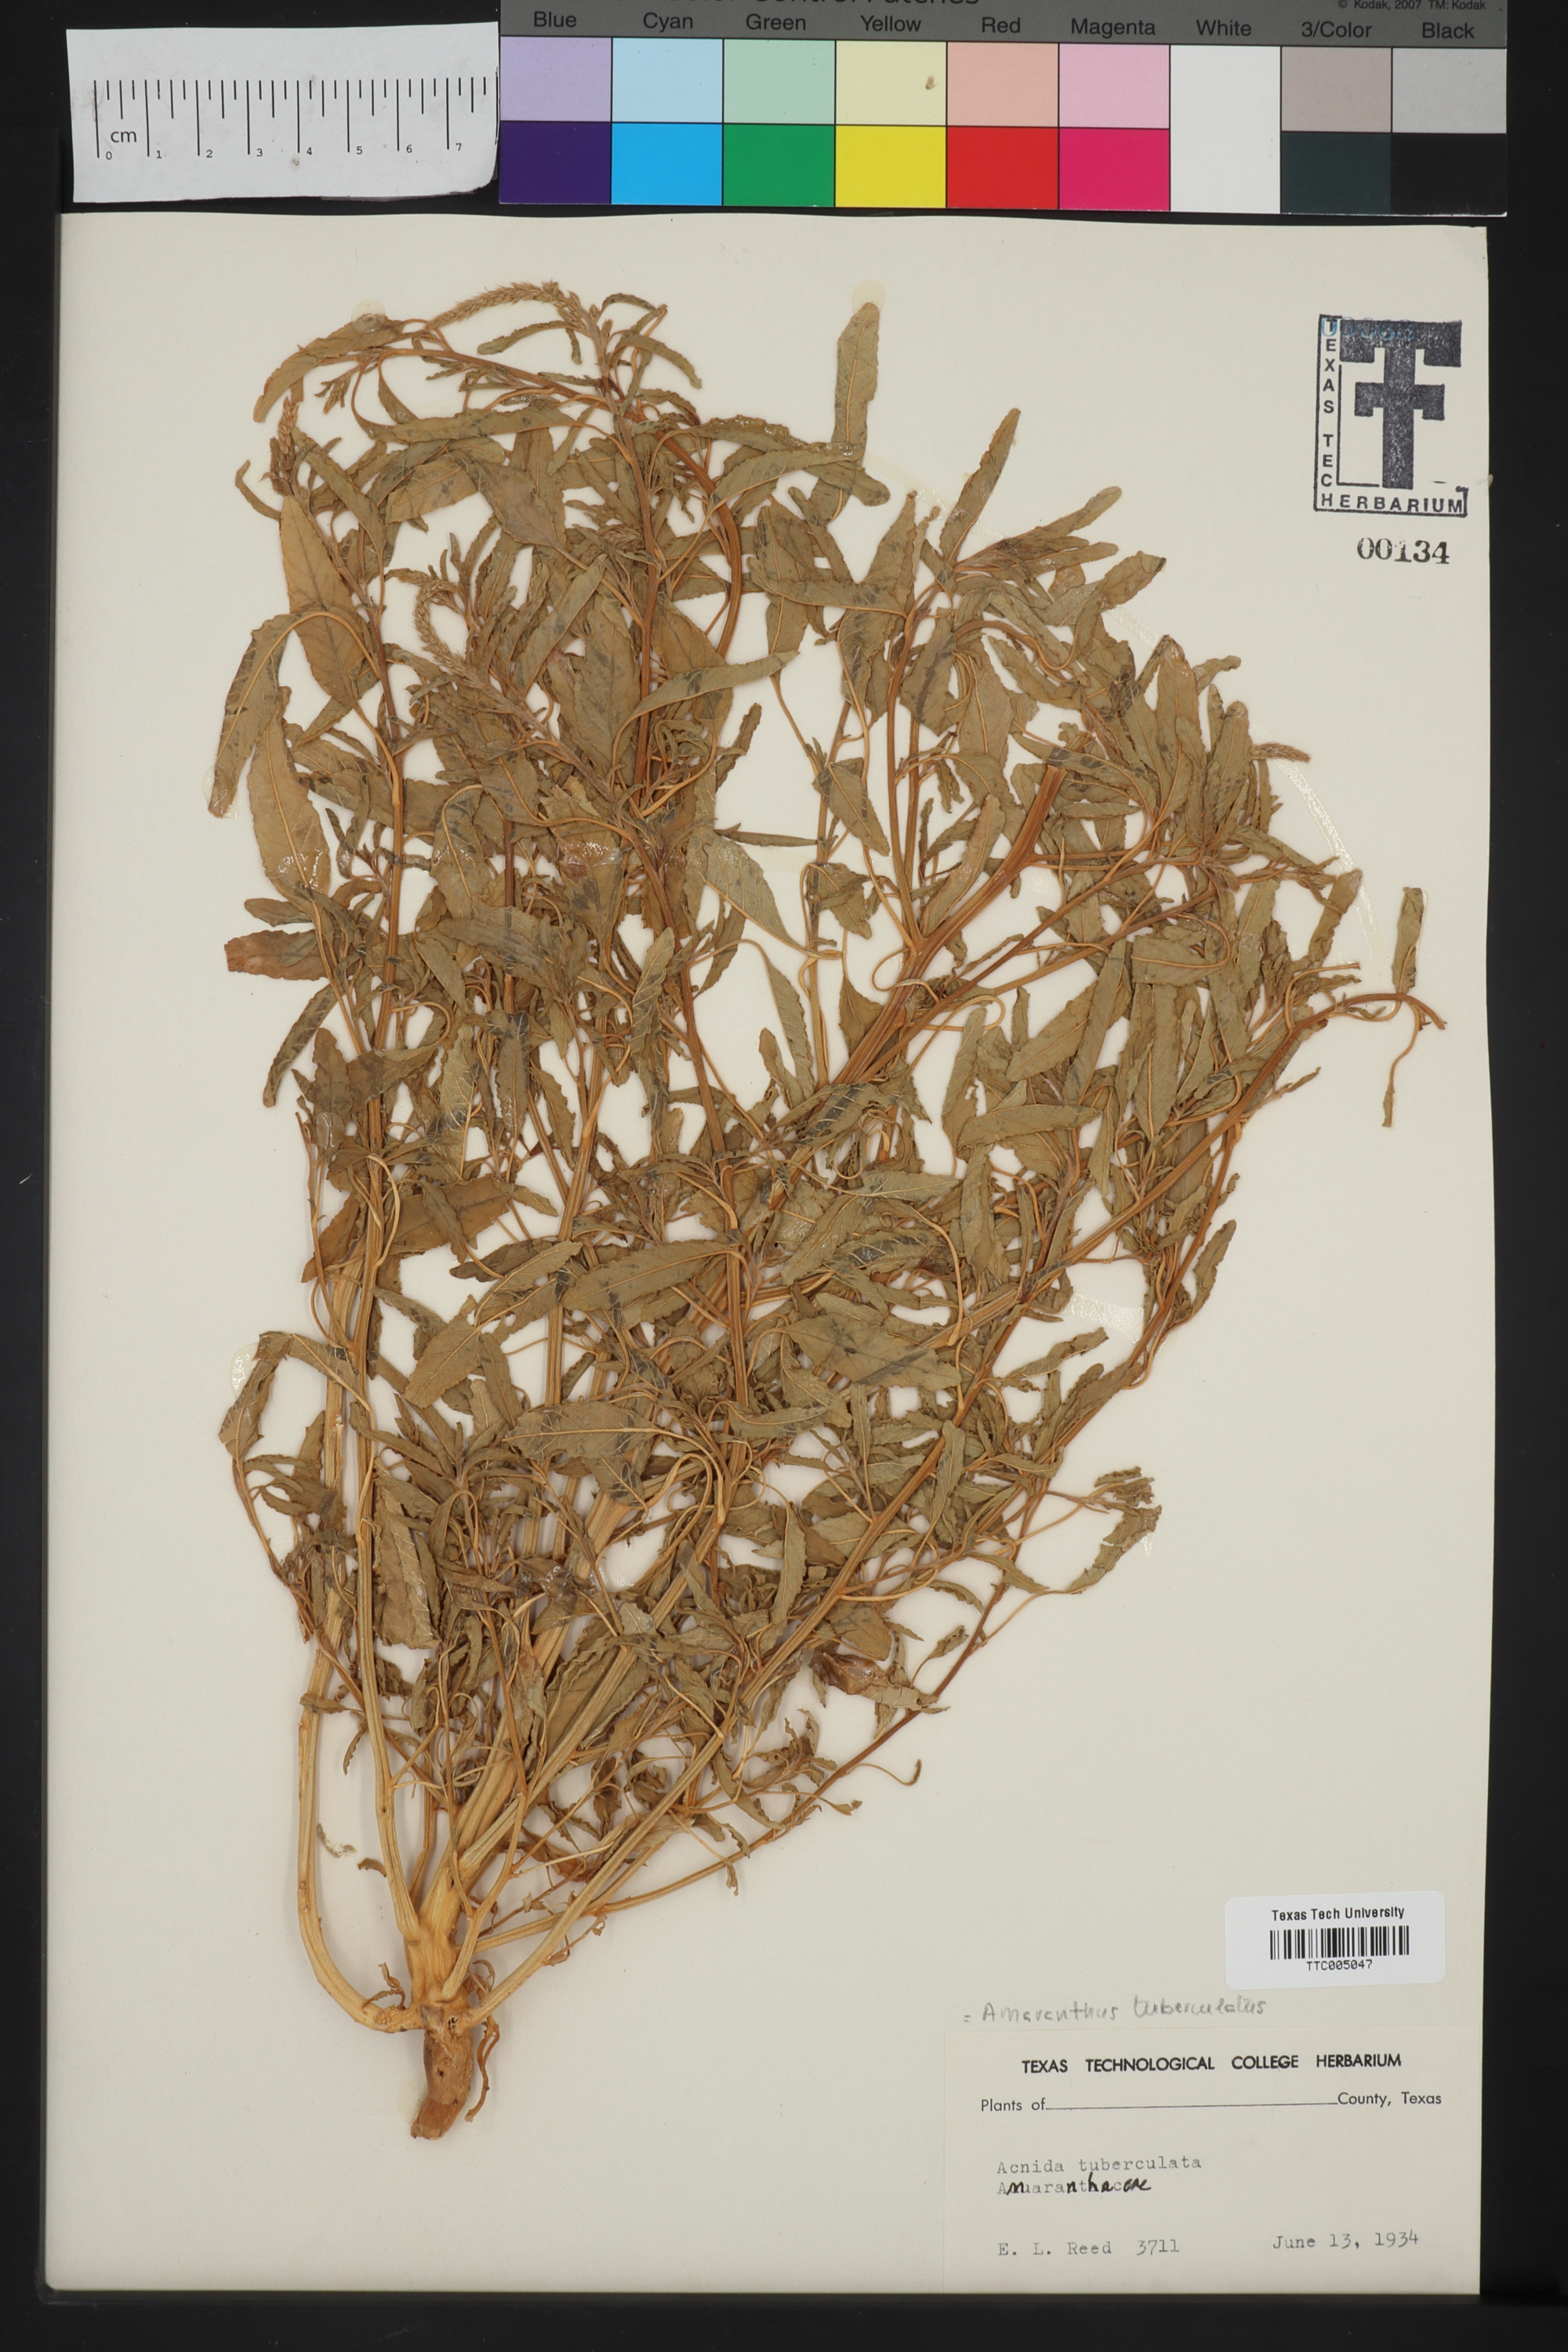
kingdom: Plantae
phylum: Tracheophyta
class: Magnoliopsida
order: Caryophyllales
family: Amaranthaceae
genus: Amaranthus
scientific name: Amaranthus tuberculatus
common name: Rough-fruit amaranth
